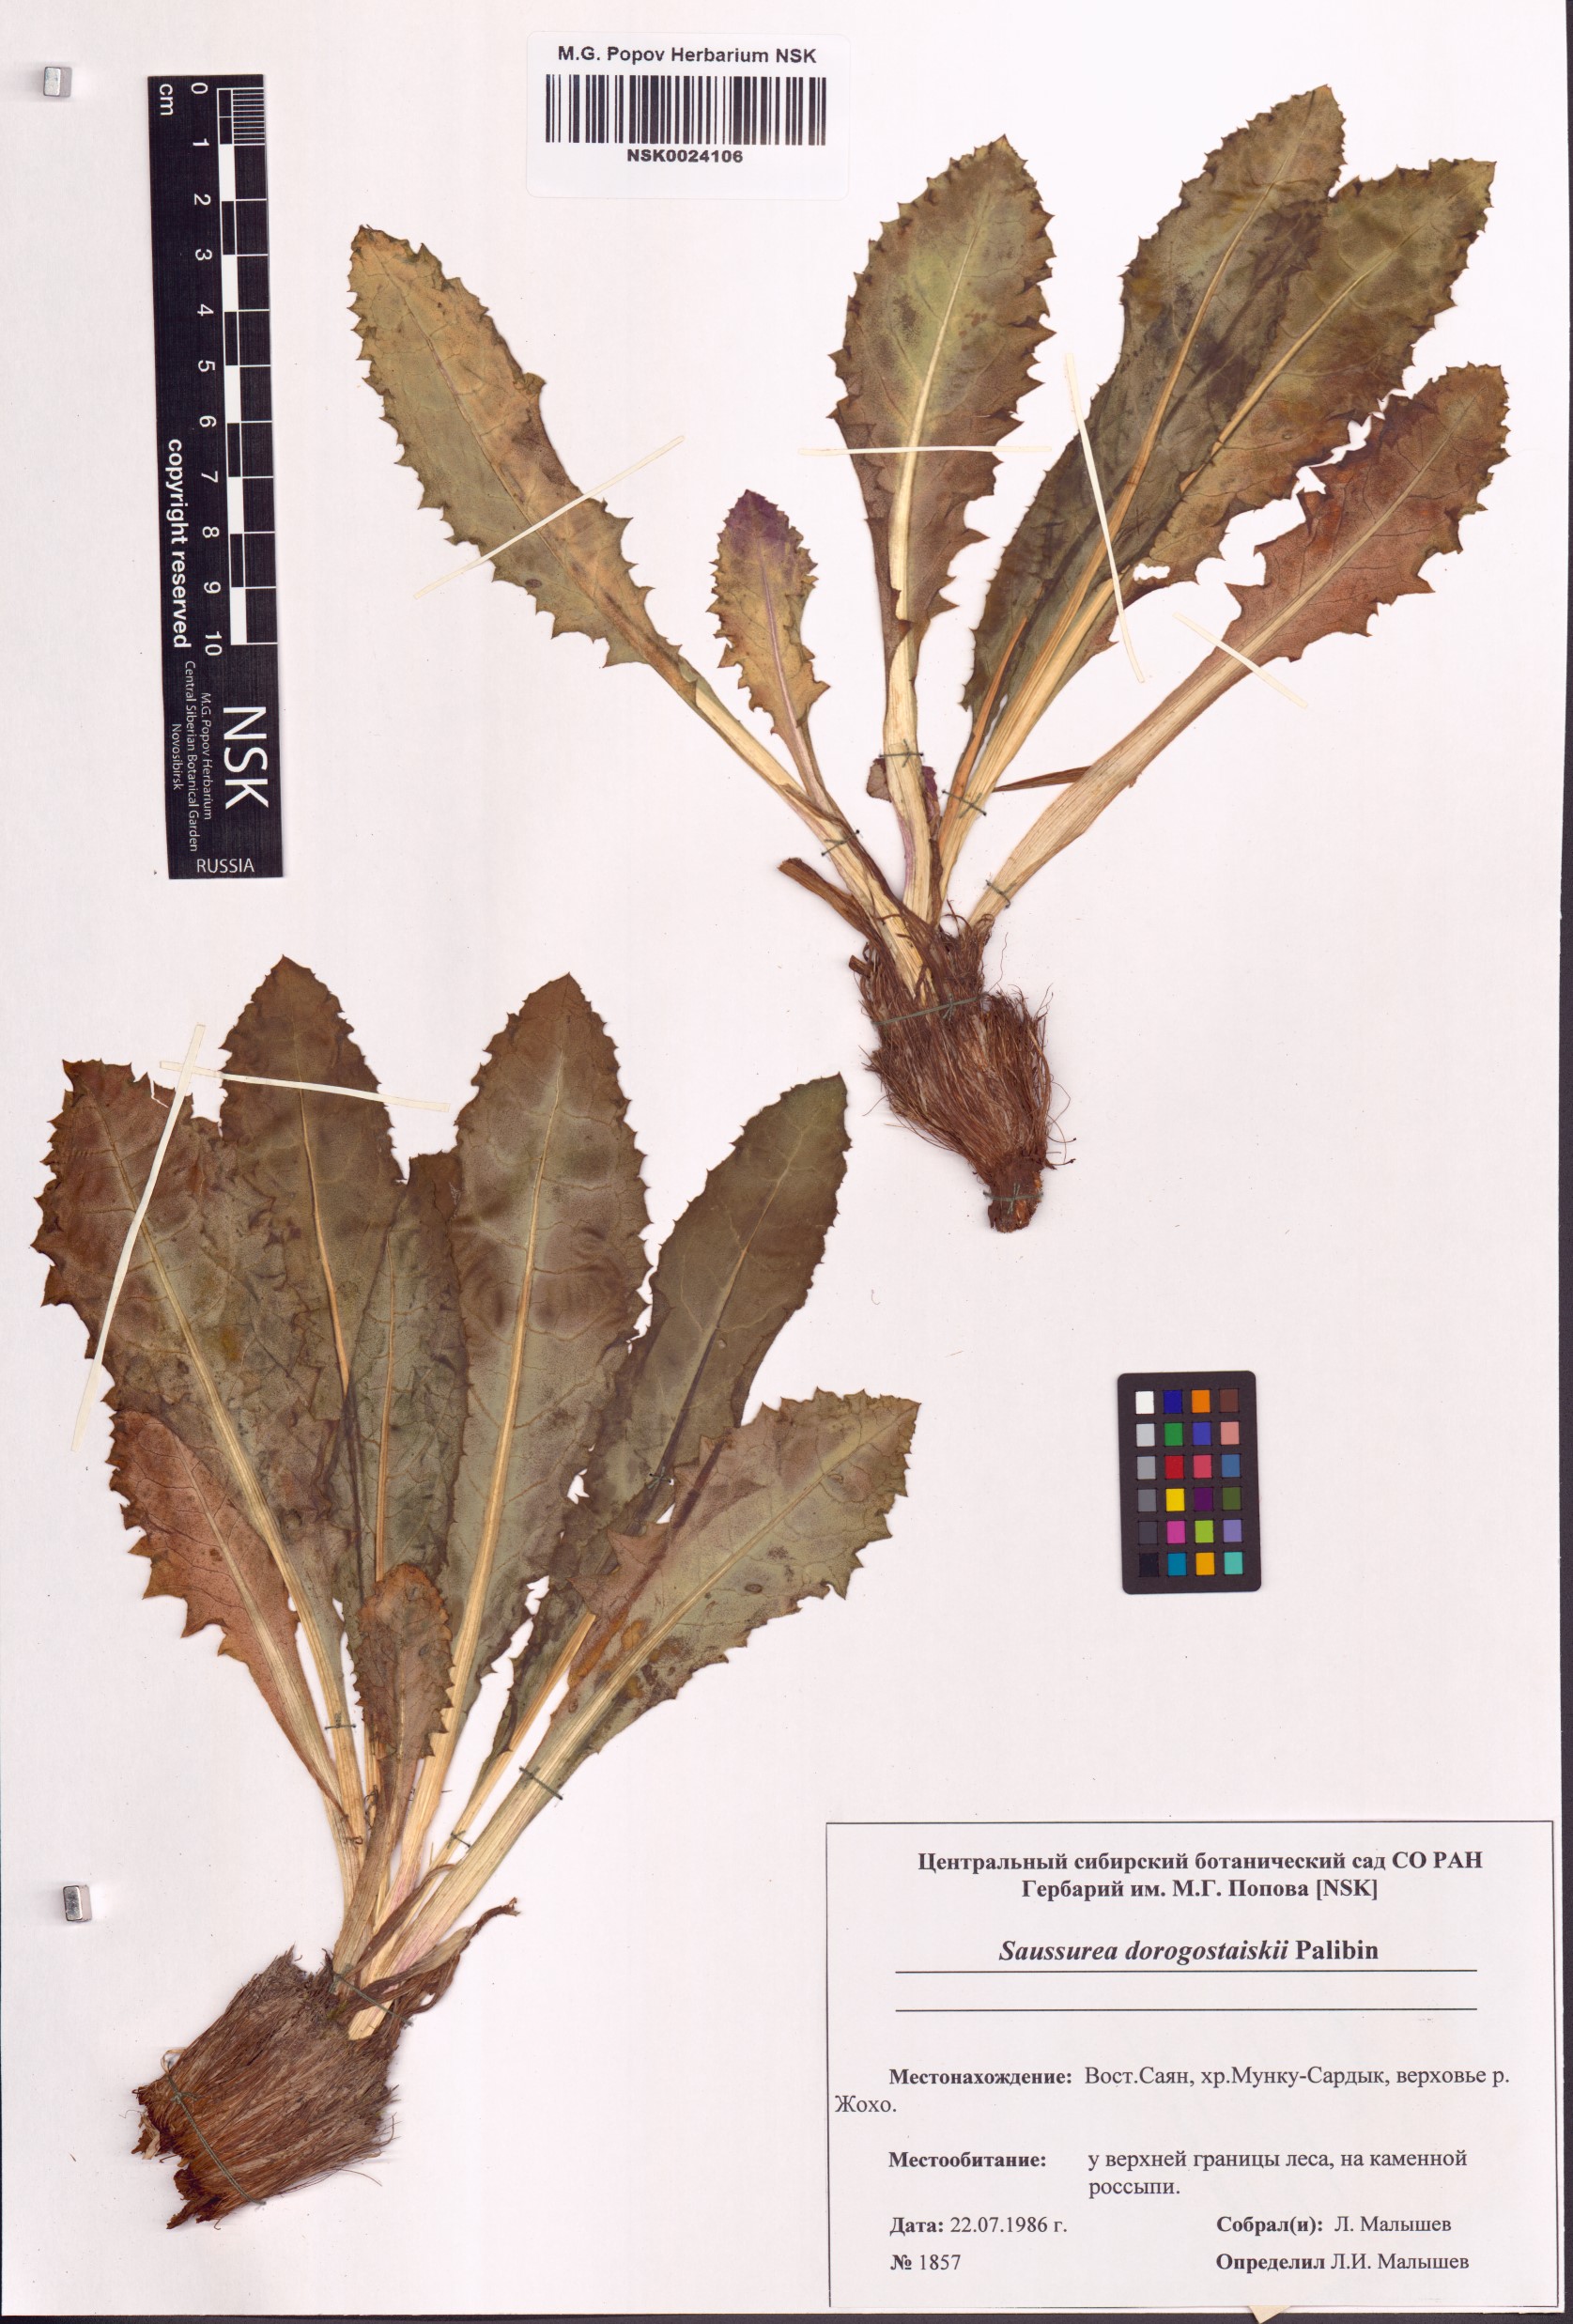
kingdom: Plantae
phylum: Tracheophyta
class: Magnoliopsida
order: Asterales
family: Asteraceae
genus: Saussurea
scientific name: Saussurea involucrata
